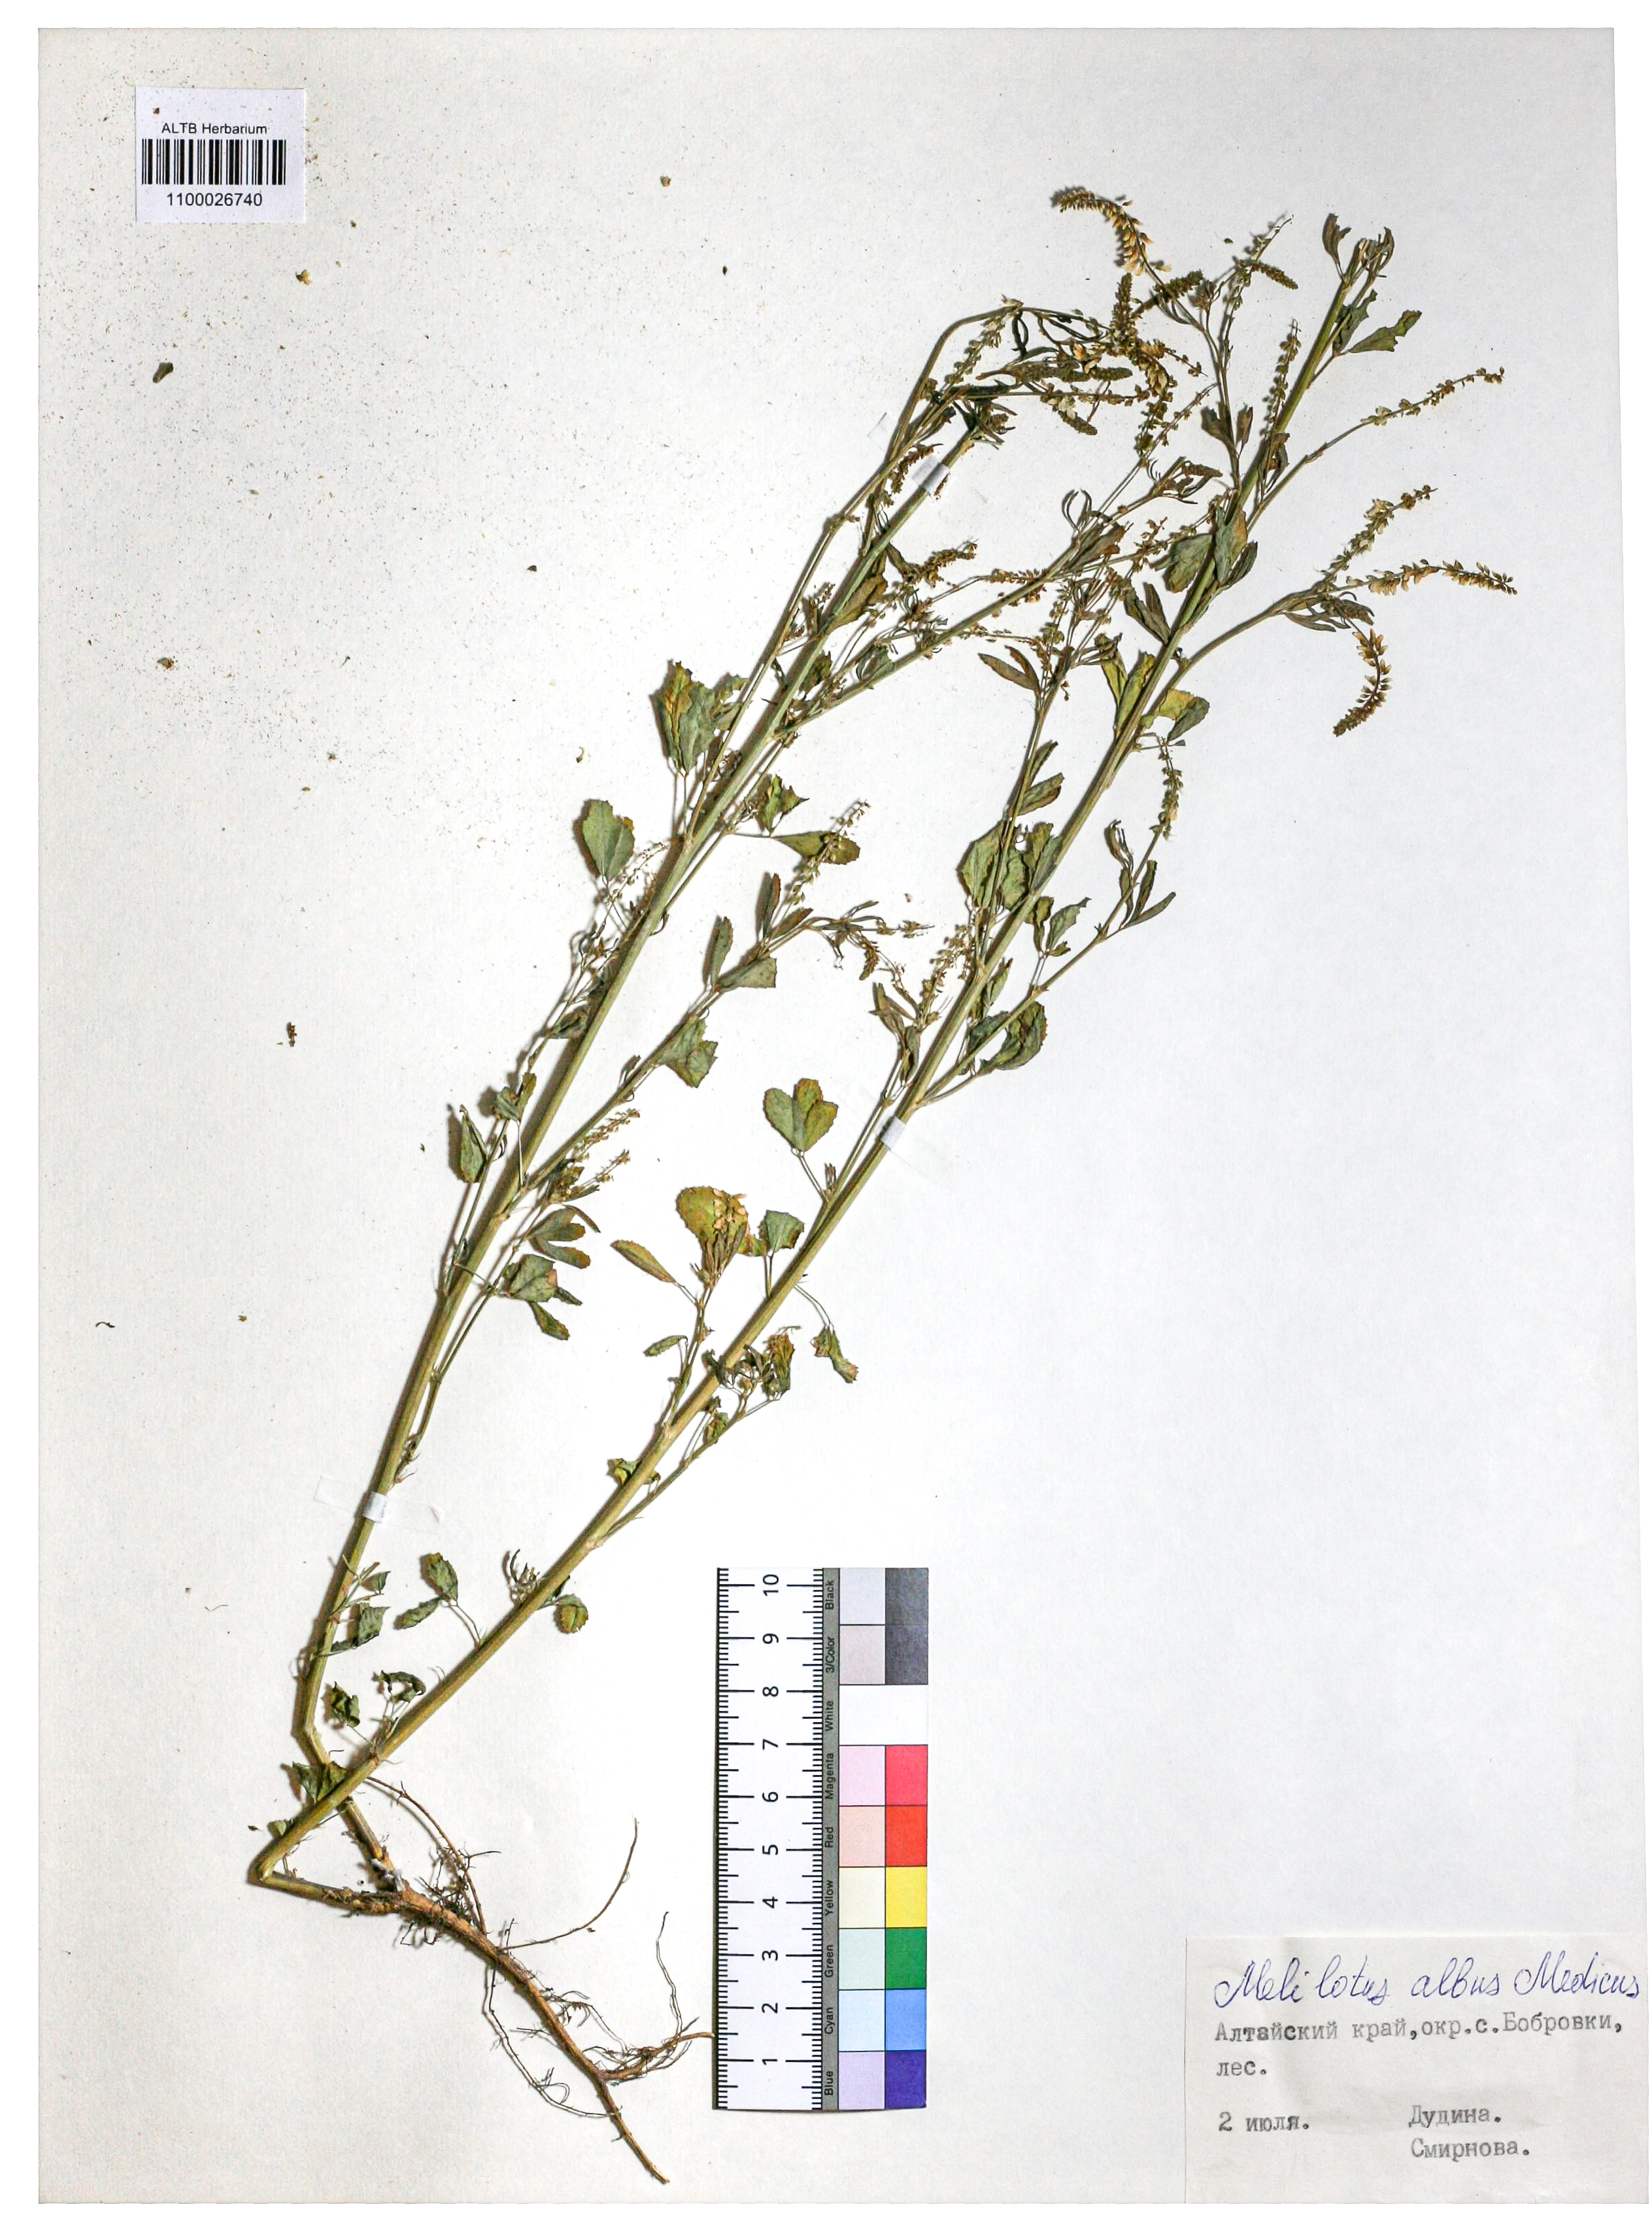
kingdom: Plantae
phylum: Tracheophyta
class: Magnoliopsida
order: Fabales
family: Fabaceae
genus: Melilotus
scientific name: Melilotus albus
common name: White melilot
